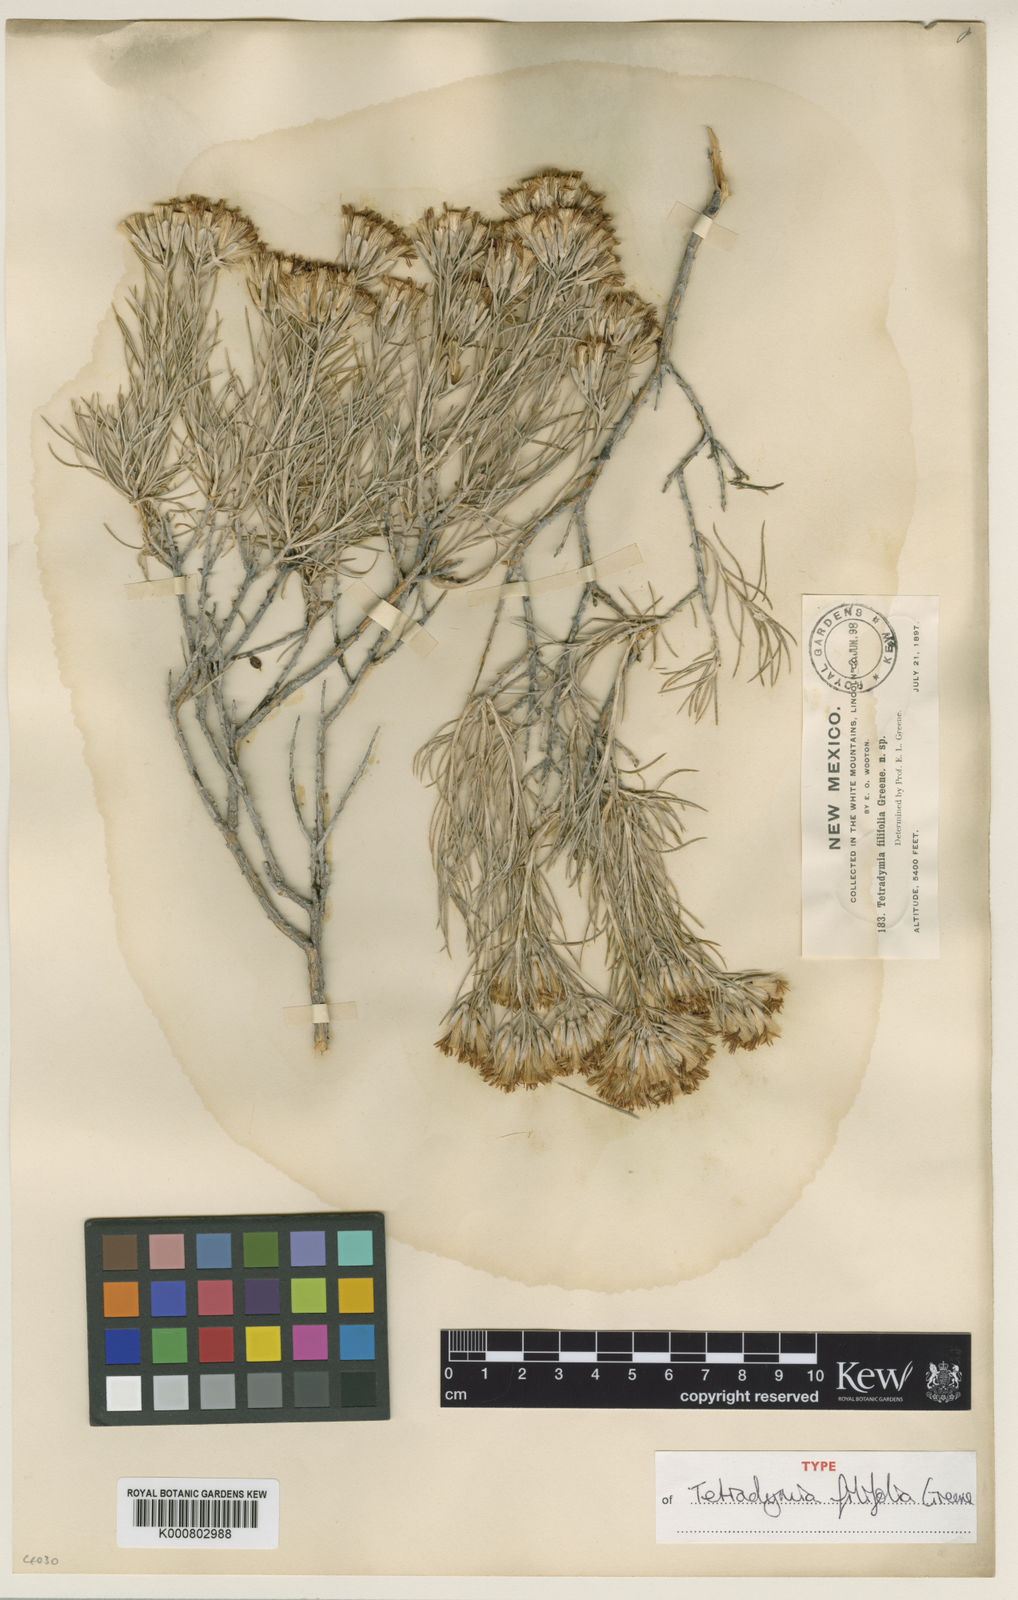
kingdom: Plantae
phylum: Tracheophyta
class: Magnoliopsida
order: Asterales
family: Asteraceae
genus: Tetradymia
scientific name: Tetradymia filifolia
